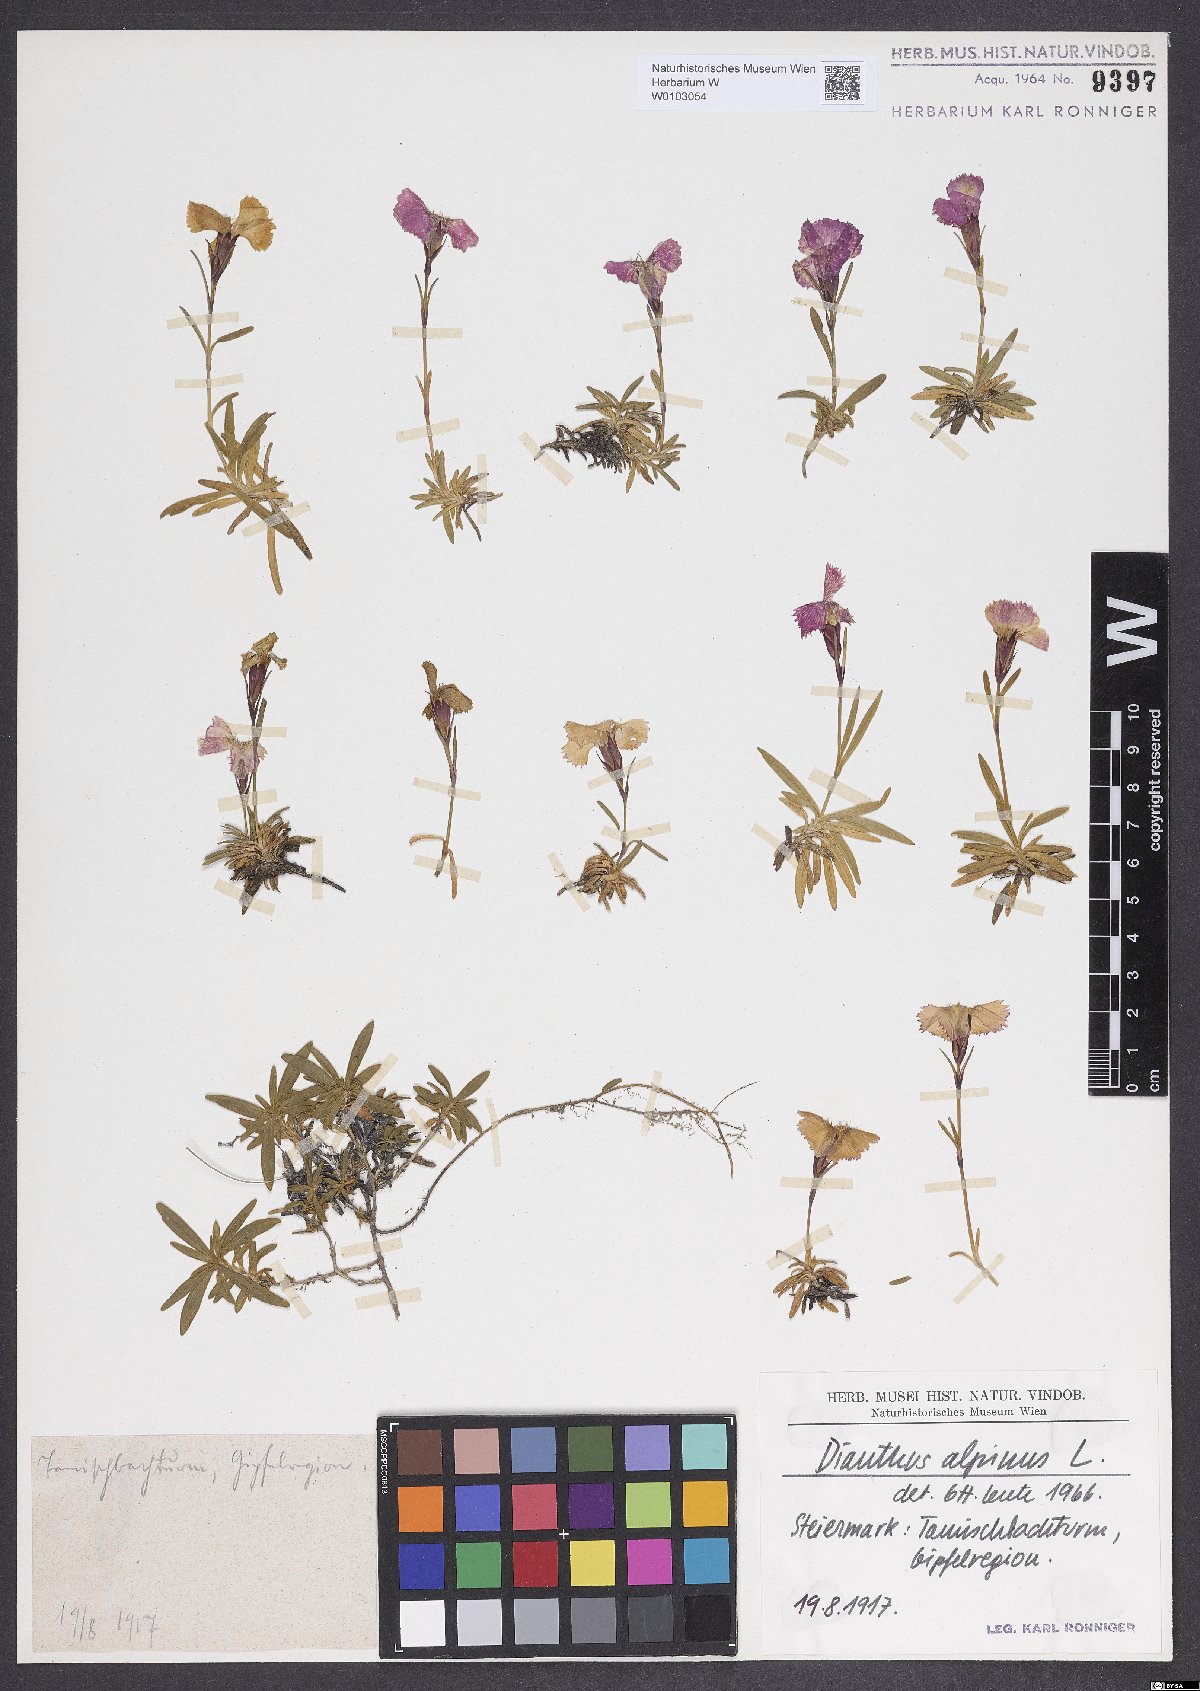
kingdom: Plantae
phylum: Tracheophyta
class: Magnoliopsida
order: Caryophyllales
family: Caryophyllaceae
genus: Dianthus
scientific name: Dianthus alpinus
